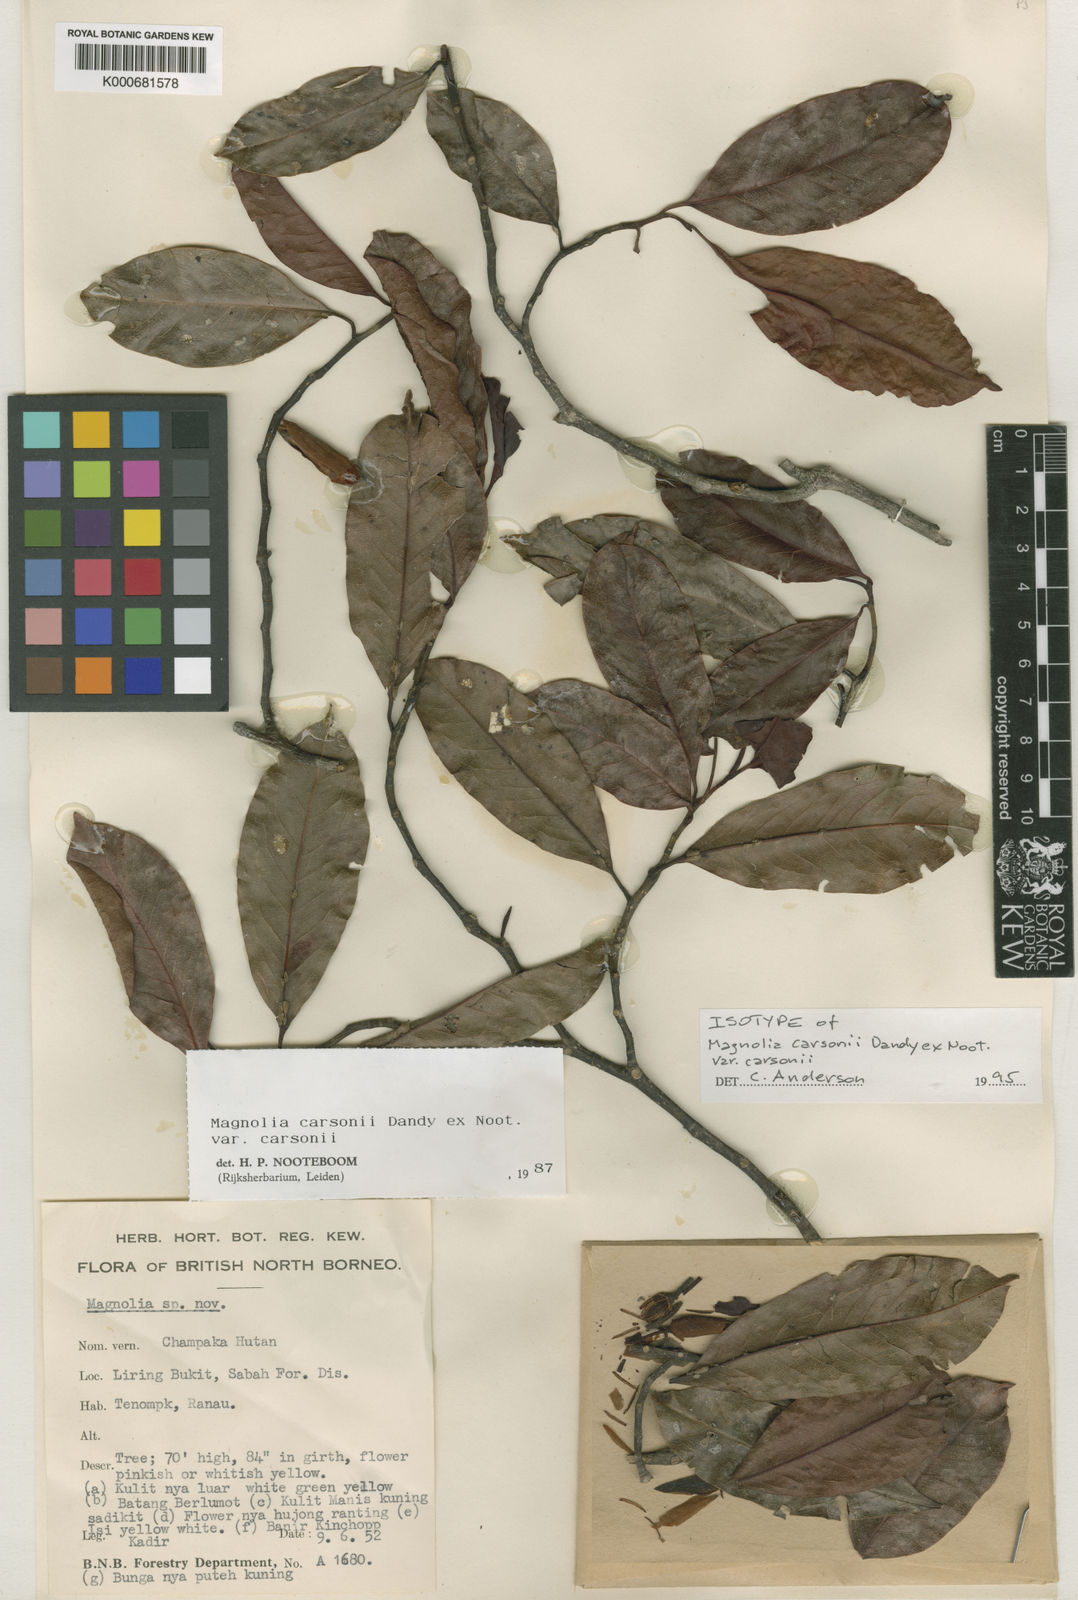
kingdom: Plantae
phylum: Tracheophyta
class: Magnoliopsida
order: Magnoliales
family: Magnoliaceae
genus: Magnolia
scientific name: Magnolia carsonii
